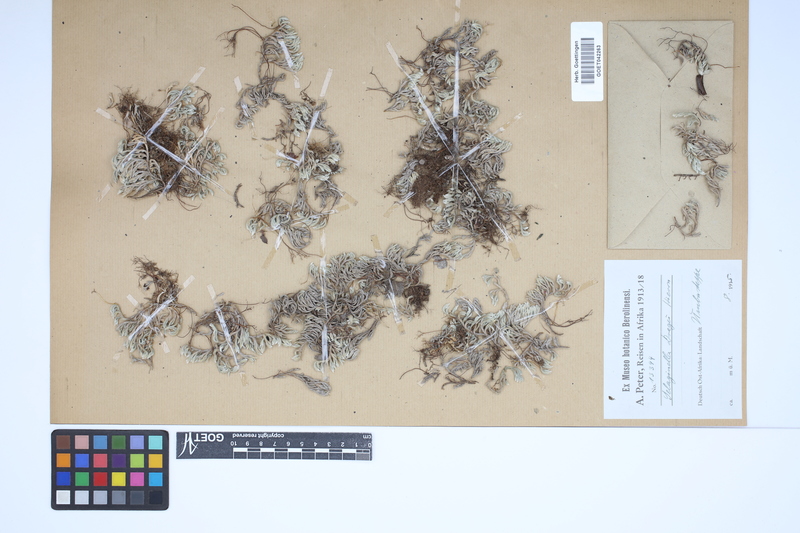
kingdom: Plantae
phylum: Tracheophyta
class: Lycopodiopsida
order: Selaginellales
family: Selaginellaceae
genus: Selaginella
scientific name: Selaginella dregei
